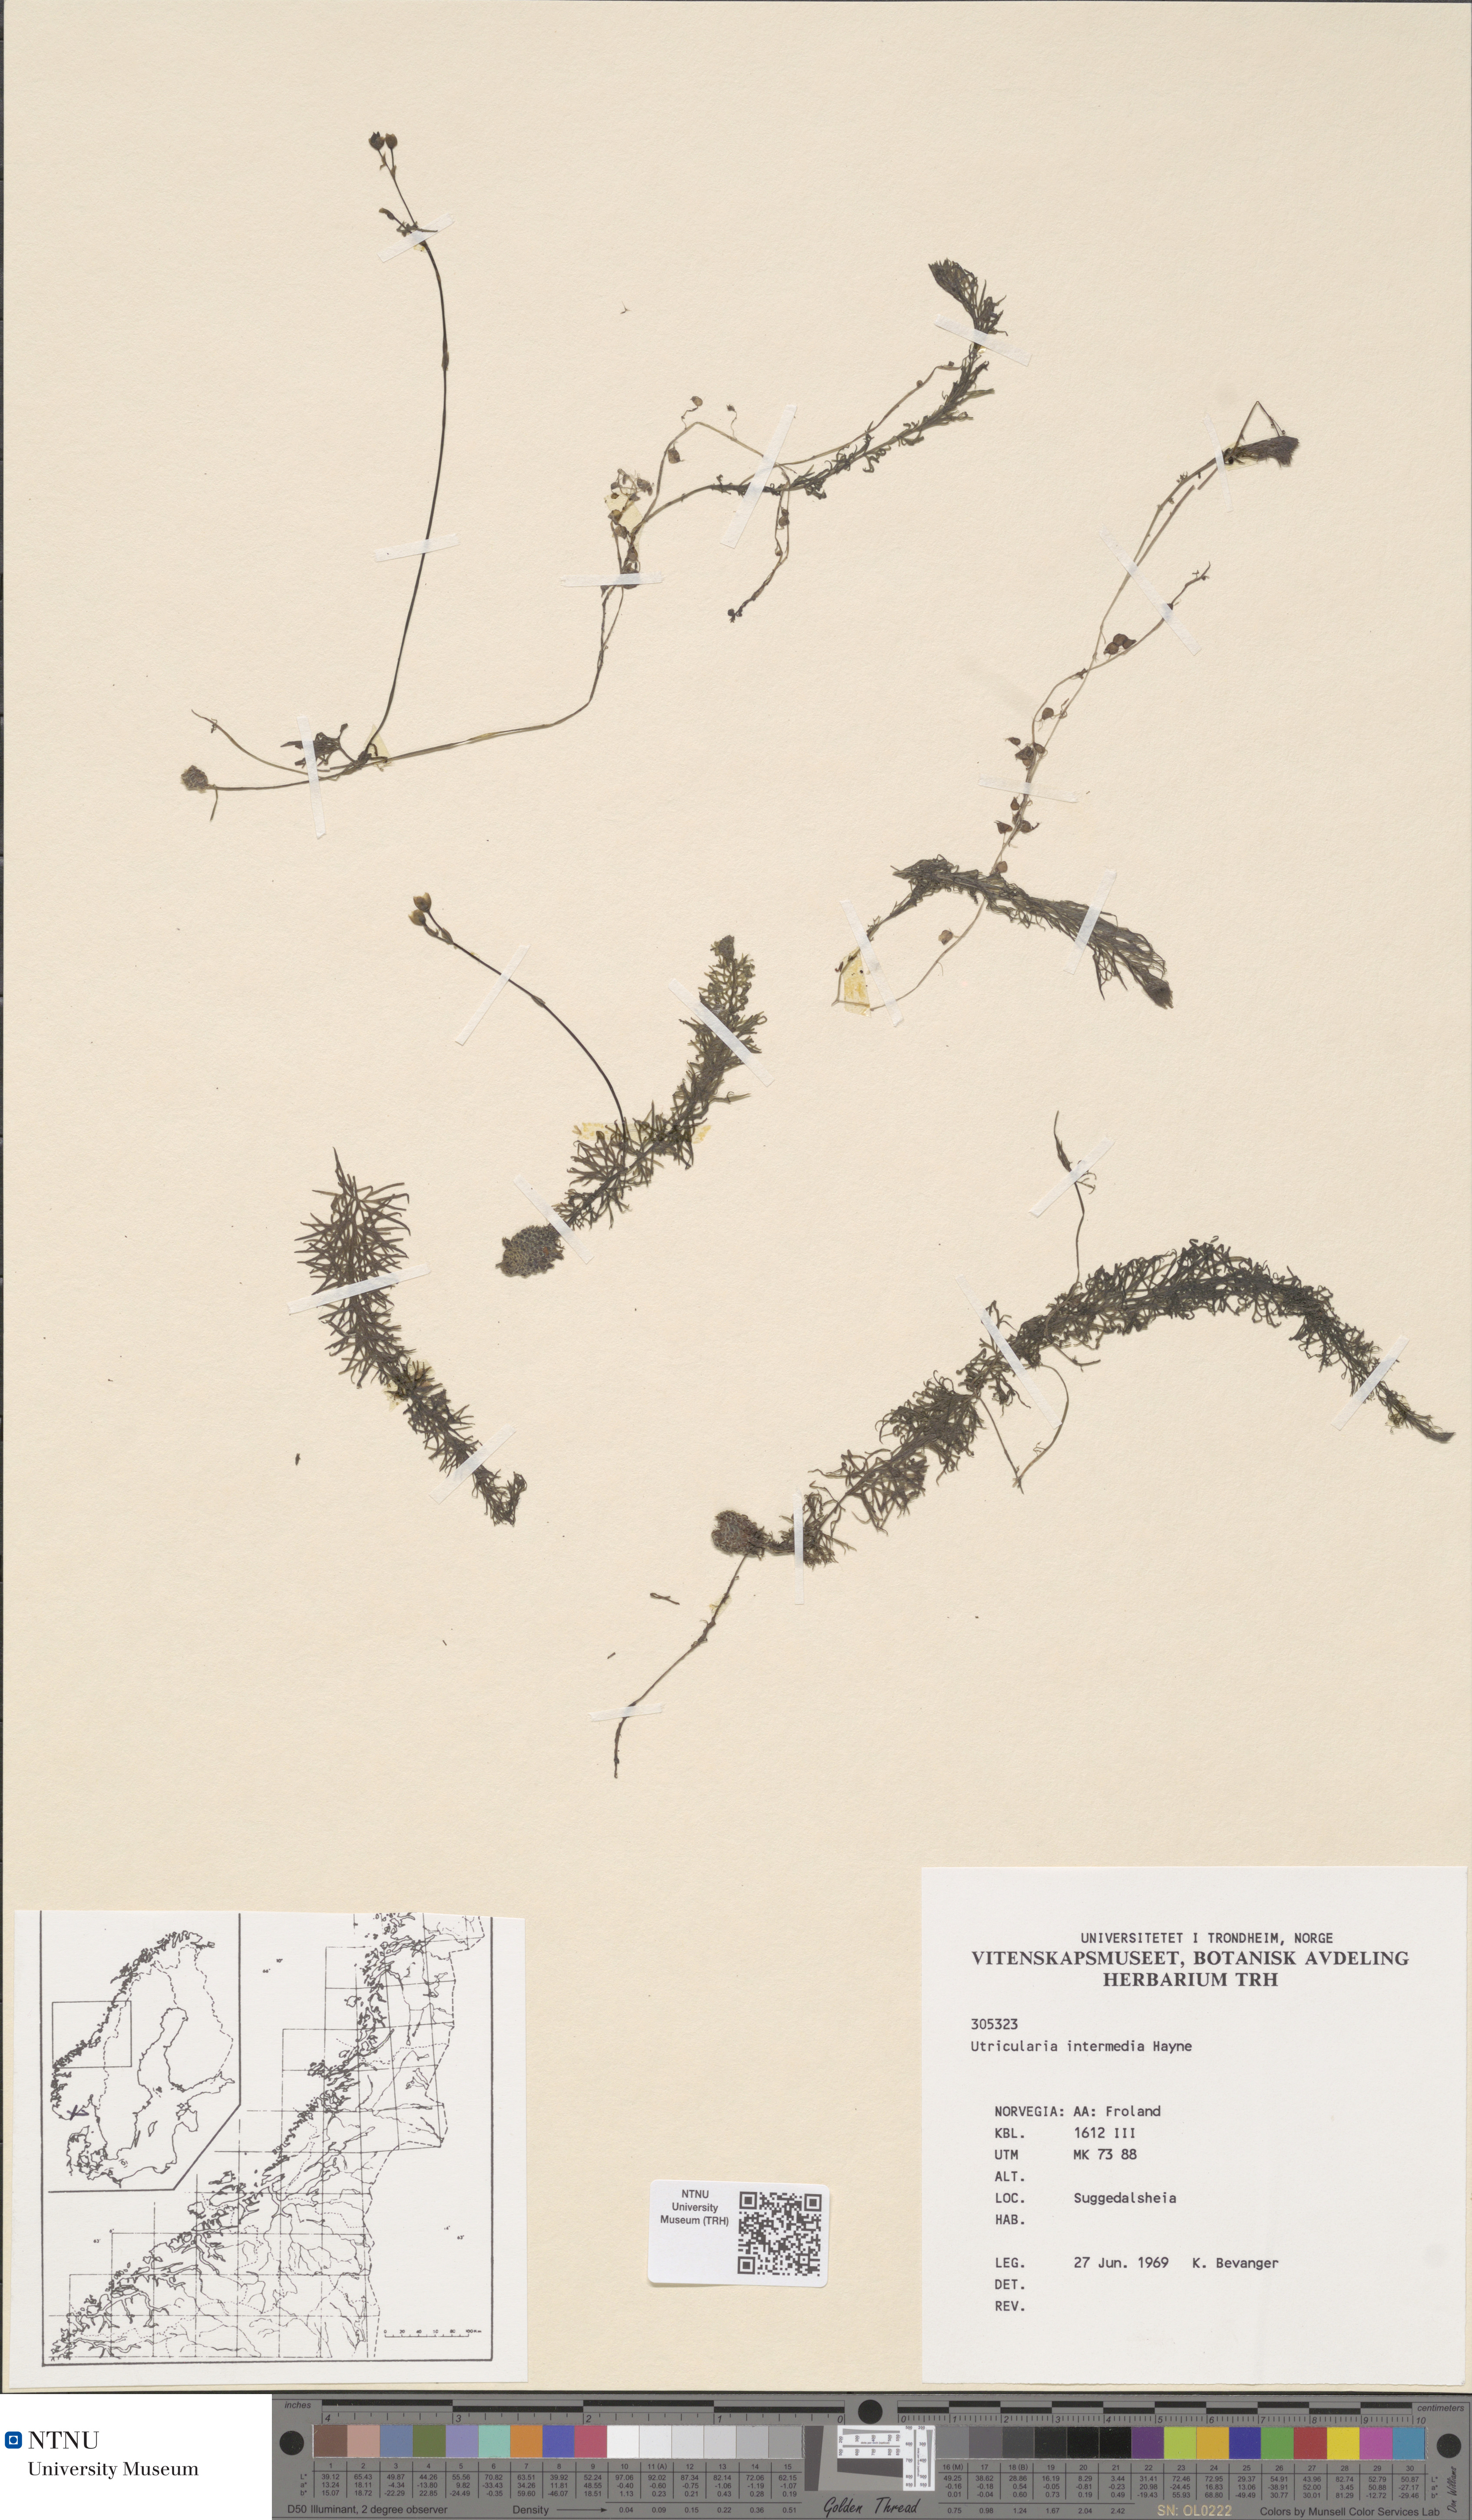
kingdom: Plantae
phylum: Tracheophyta
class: Magnoliopsida
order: Lamiales
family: Lentibulariaceae
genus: Utricularia
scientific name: Utricularia intermedia
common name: Intermediate bladderwort
